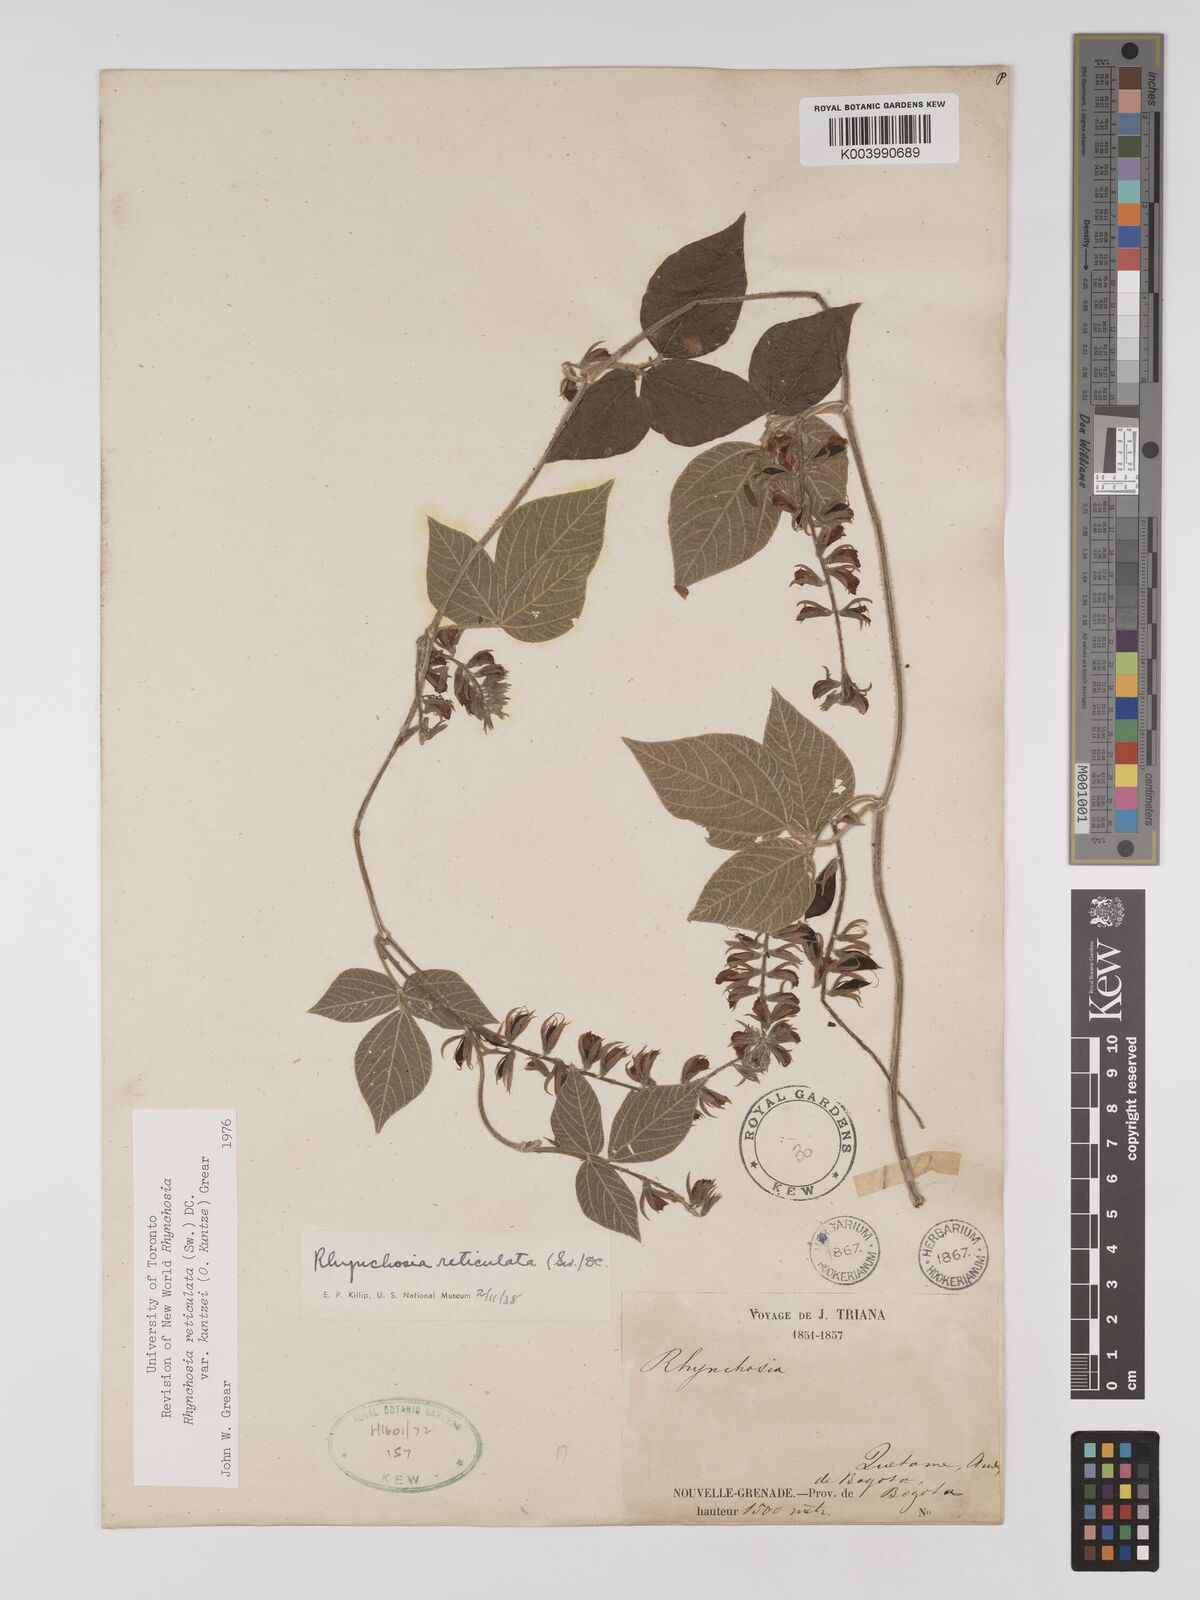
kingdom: Plantae
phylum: Tracheophyta
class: Magnoliopsida
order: Fabales
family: Fabaceae
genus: Rhynchosia
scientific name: Rhynchosia reticulata
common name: Pea withe
